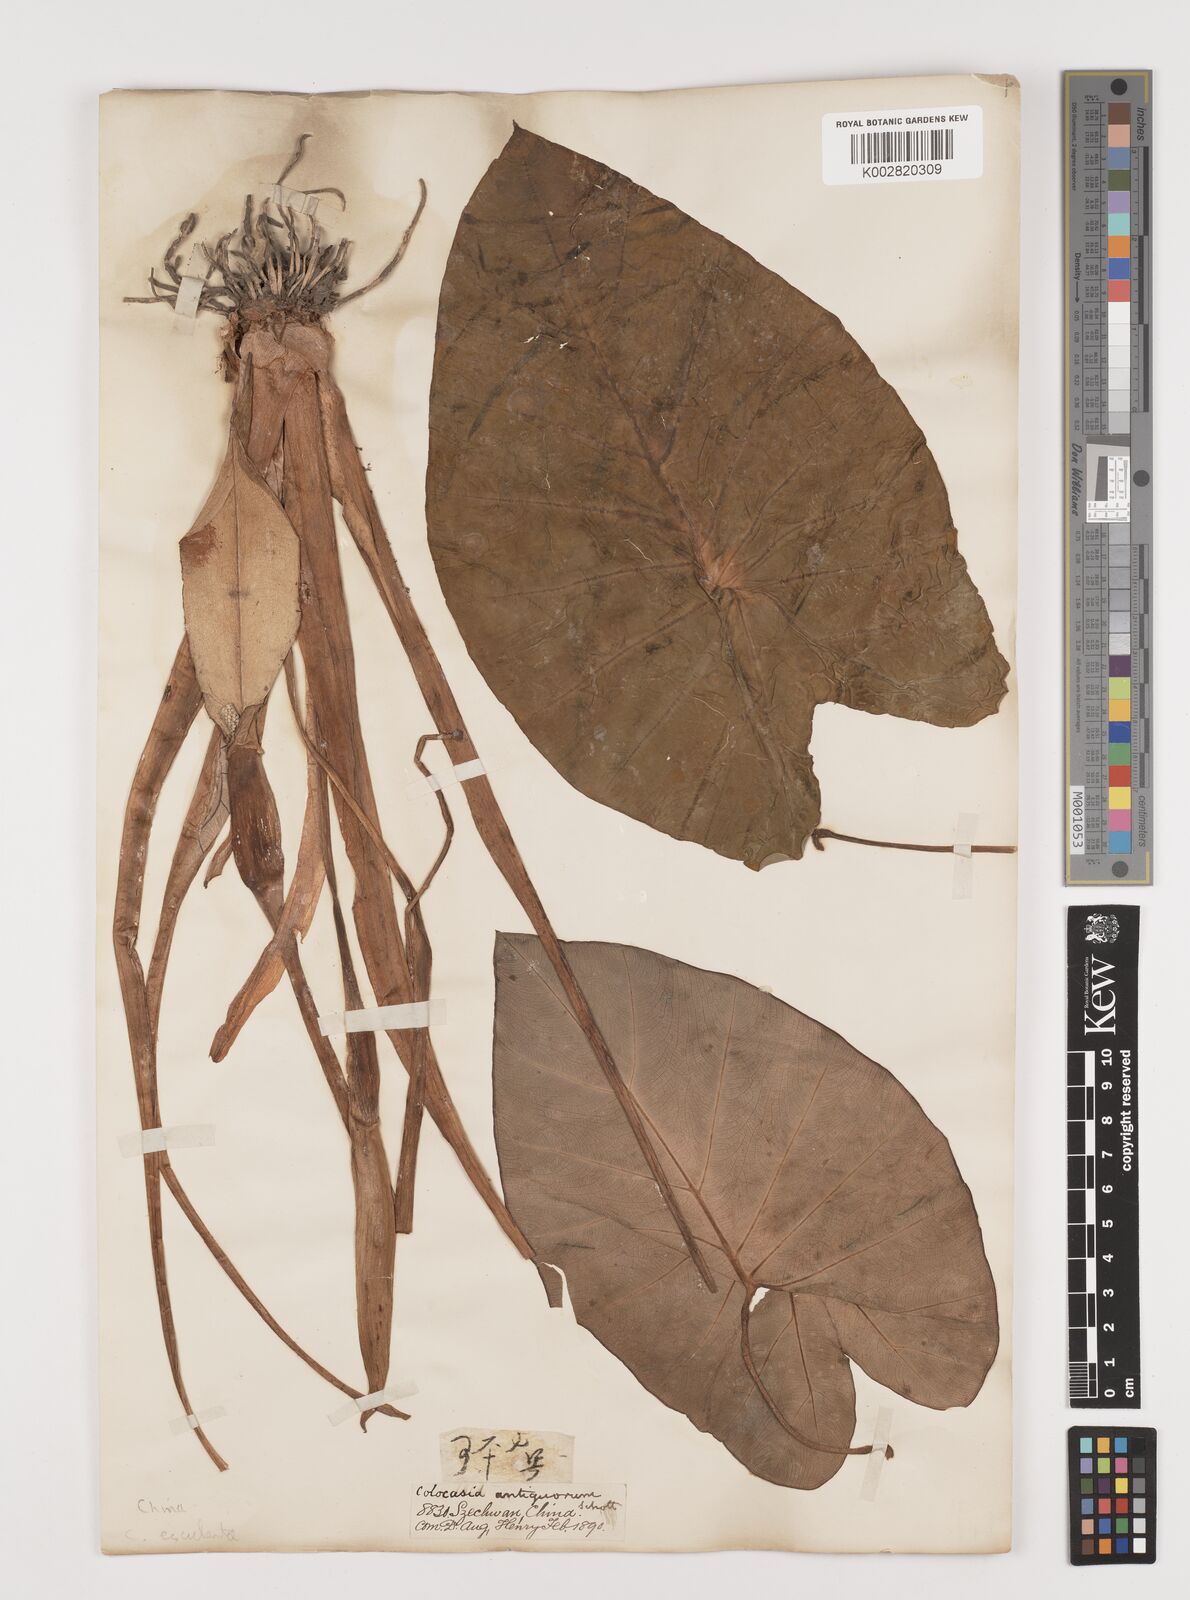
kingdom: Plantae
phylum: Tracheophyta
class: Liliopsida
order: Alismatales
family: Araceae
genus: Colocasia
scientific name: Colocasia esculenta
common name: Taro
